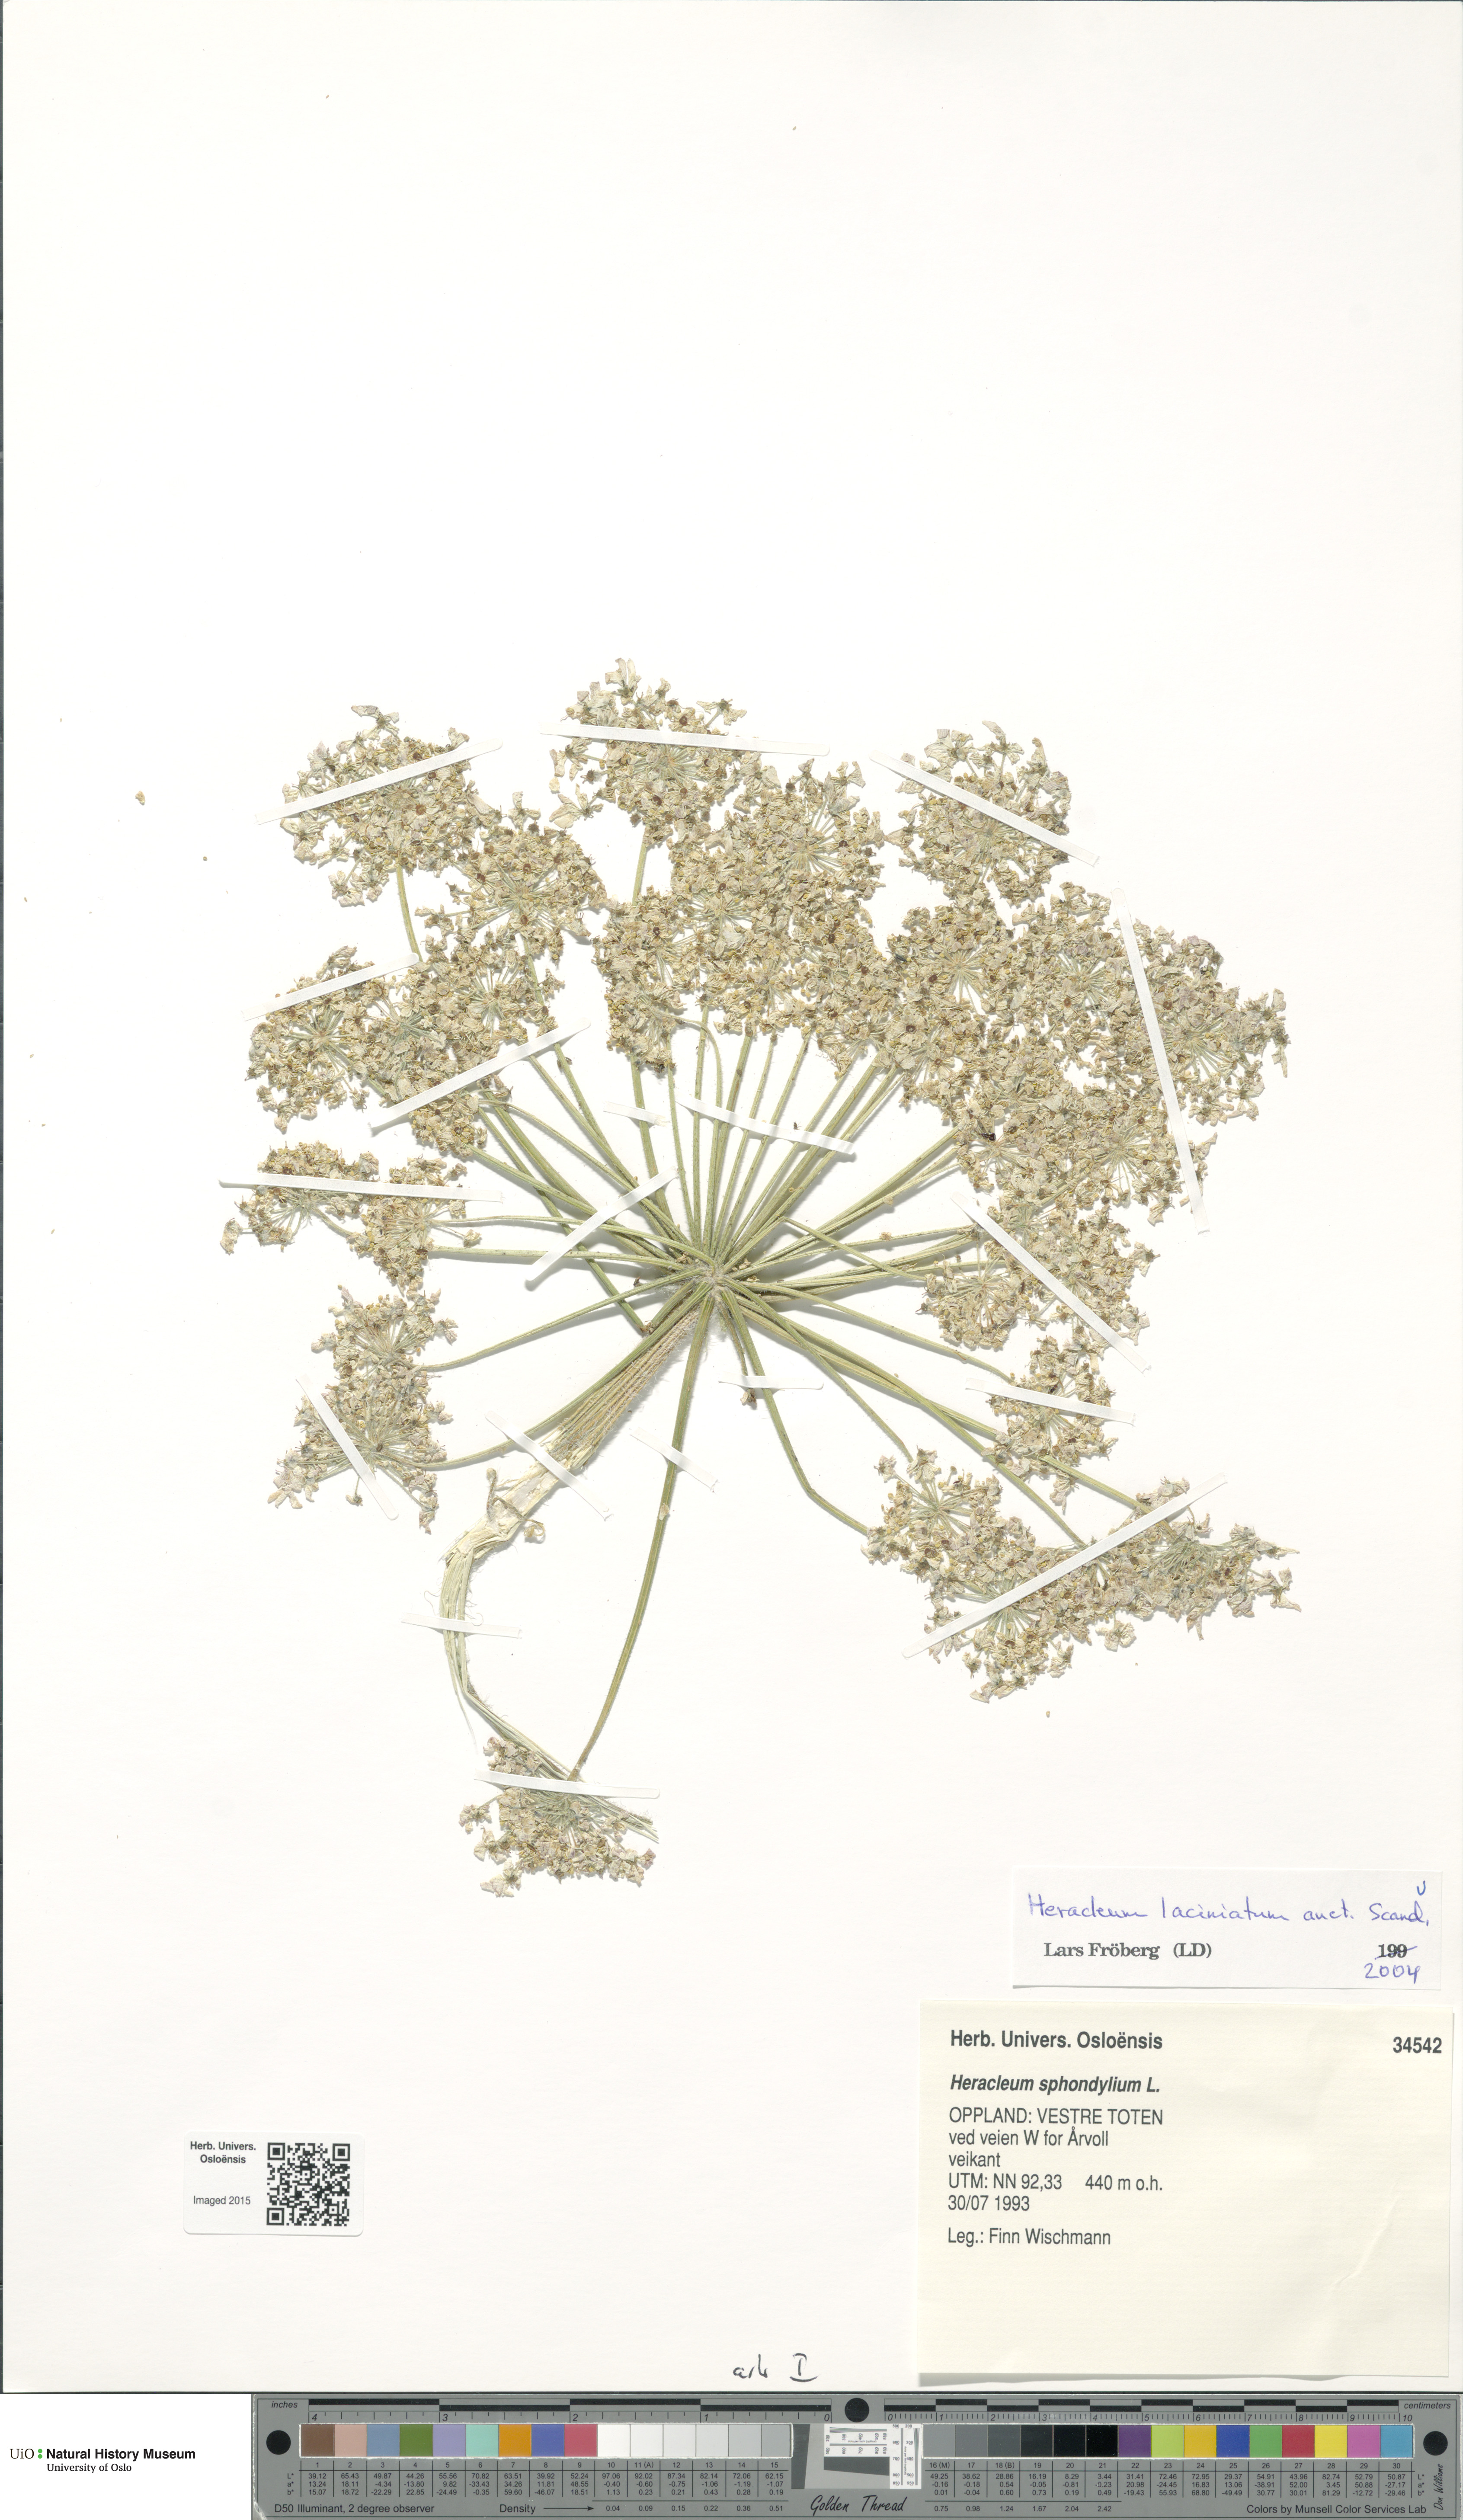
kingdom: Plantae
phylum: Tracheophyta
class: Magnoliopsida
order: Apiales
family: Apiaceae
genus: Heracleum
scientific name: Heracleum persicum
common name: Persian hogweed
